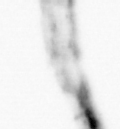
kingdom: Animalia
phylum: Arthropoda
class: Copepoda
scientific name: Copepoda
